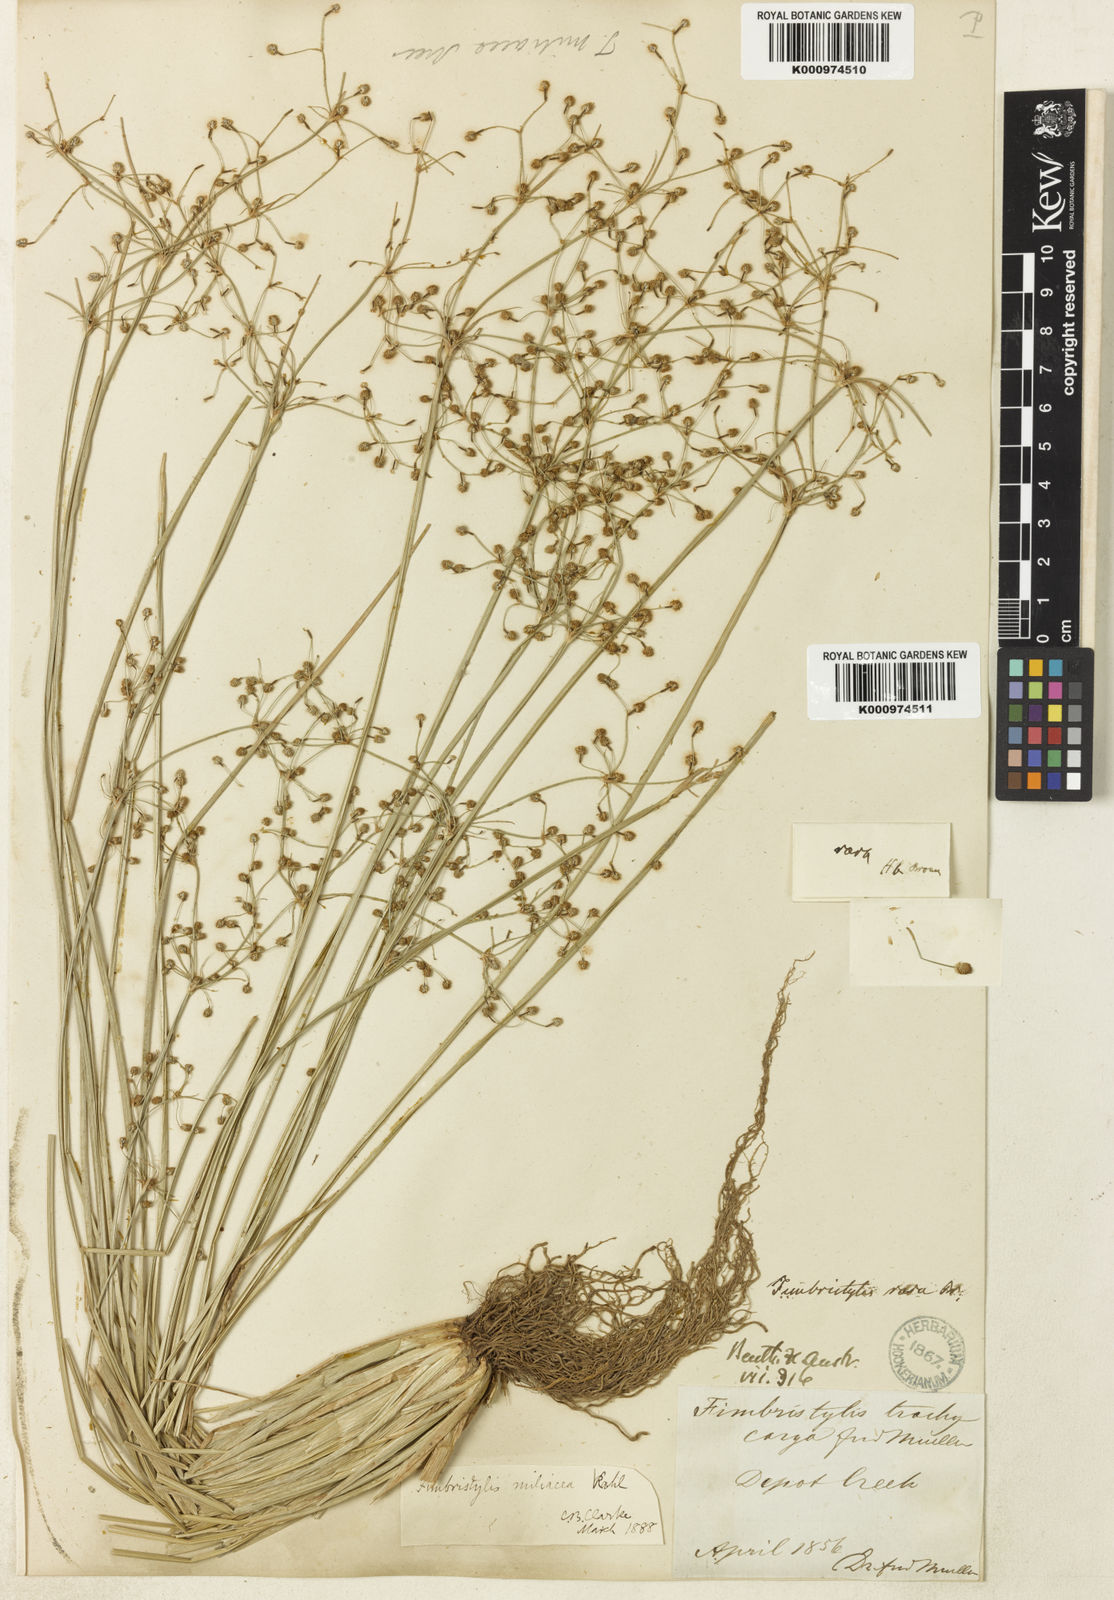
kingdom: Plantae
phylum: Tracheophyta
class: Liliopsida
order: Poales
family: Cyperaceae
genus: Fimbristylis
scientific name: Fimbristylis trachycarya
